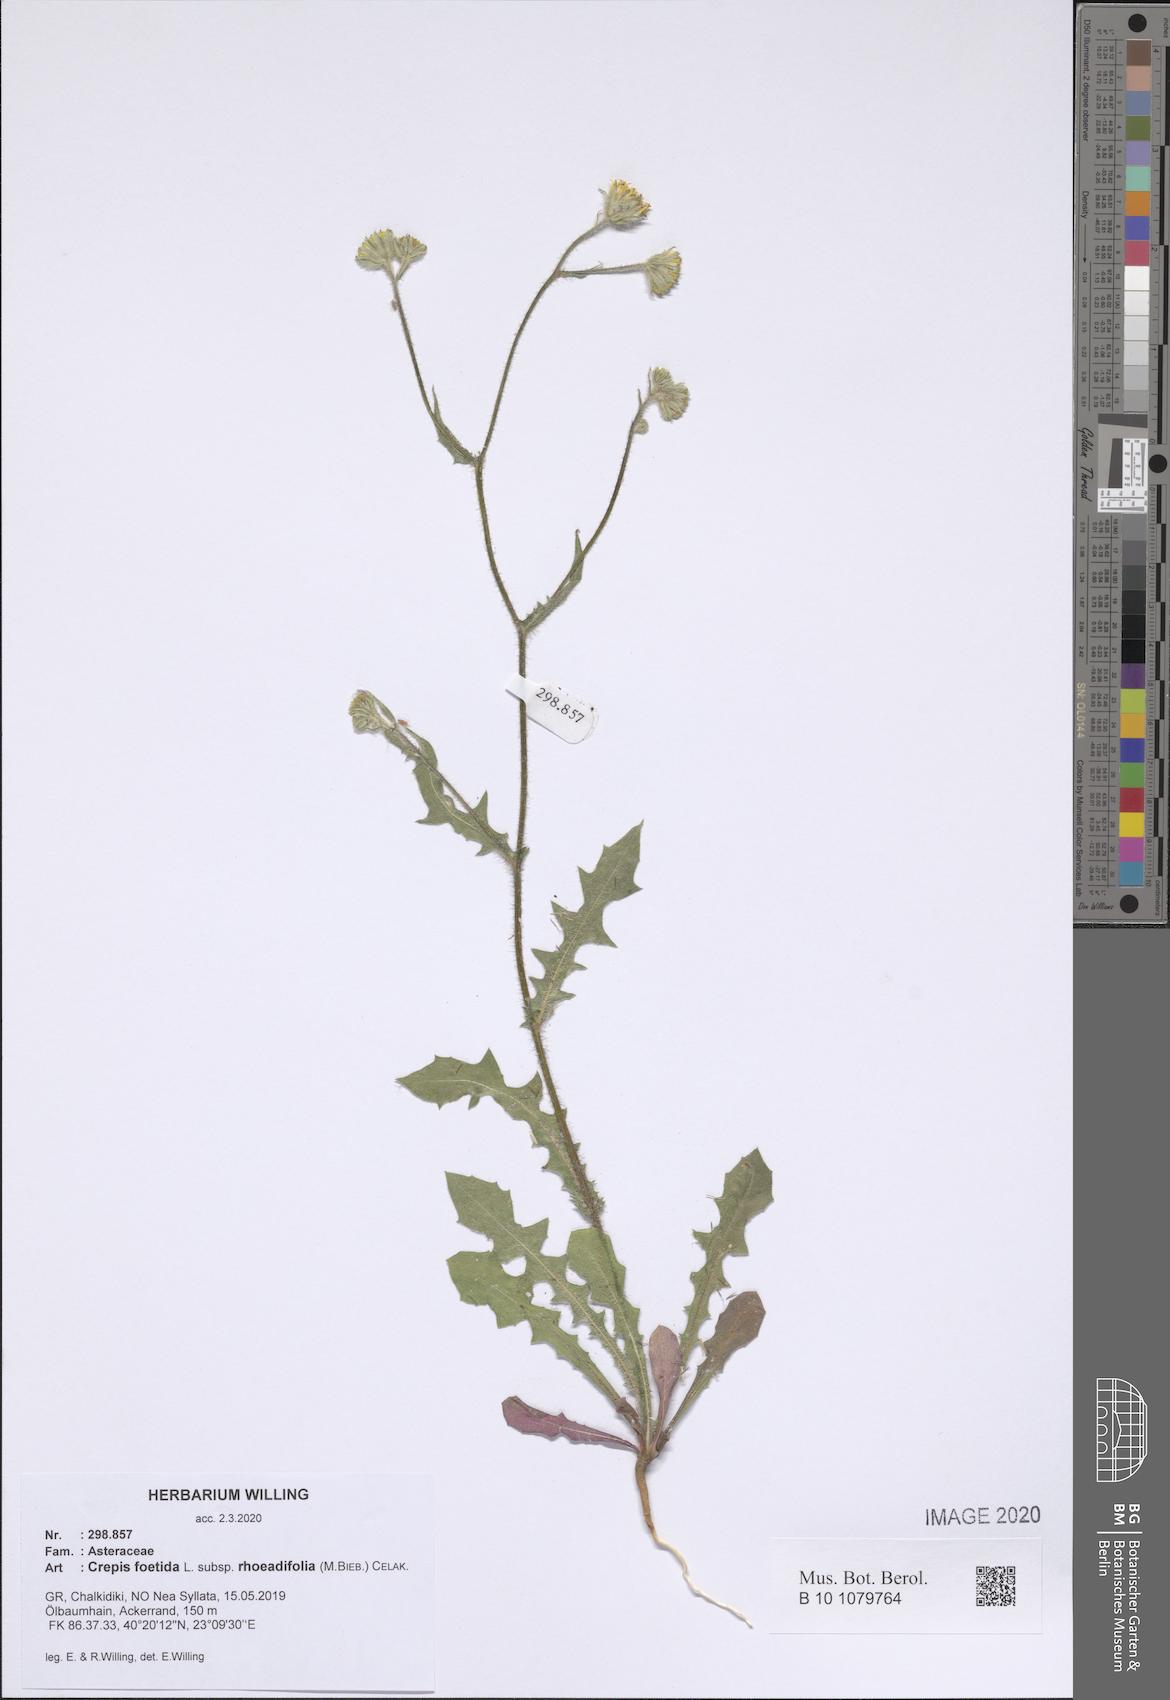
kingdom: Plantae
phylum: Tracheophyta
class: Magnoliopsida
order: Asterales
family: Asteraceae
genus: Crepis
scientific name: Crepis foetida
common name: Stinking hawk's-beard
